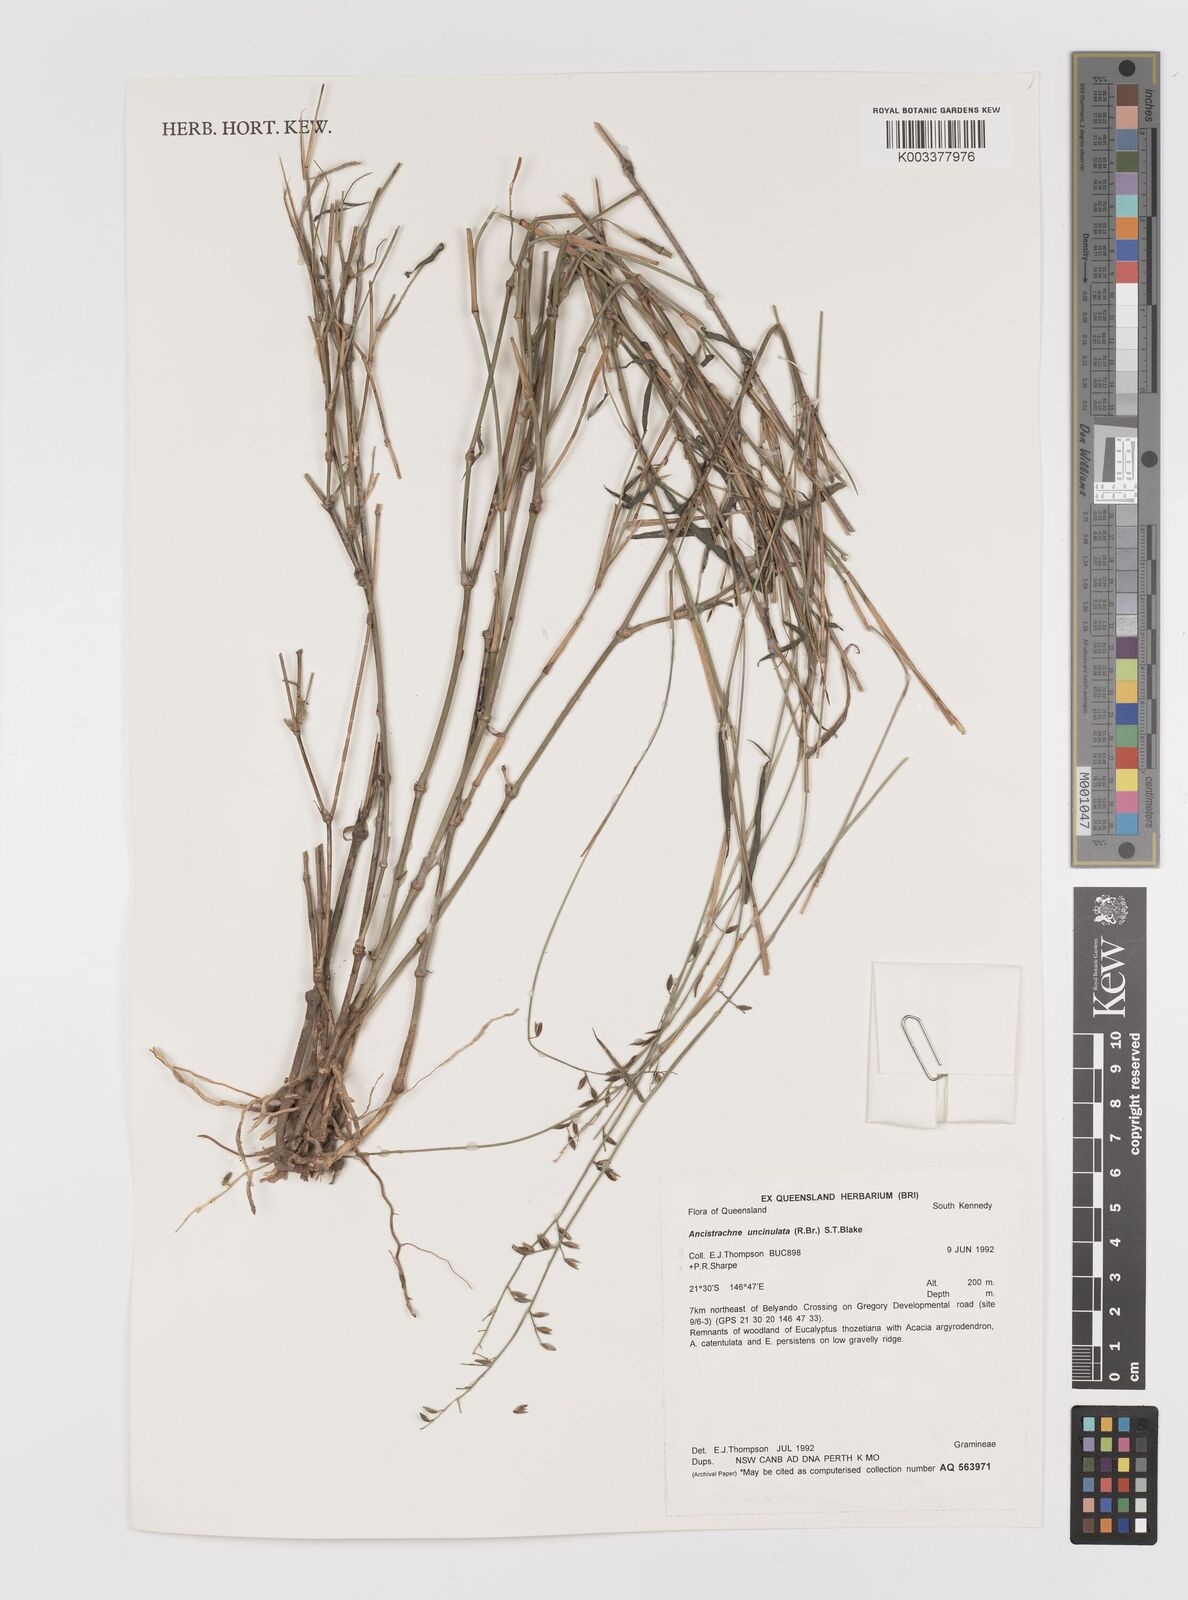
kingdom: Plantae
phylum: Tracheophyta
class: Liliopsida
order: Poales
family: Poaceae
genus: Ancistrachne
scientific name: Ancistrachne uncinulata
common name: Hooky grass
